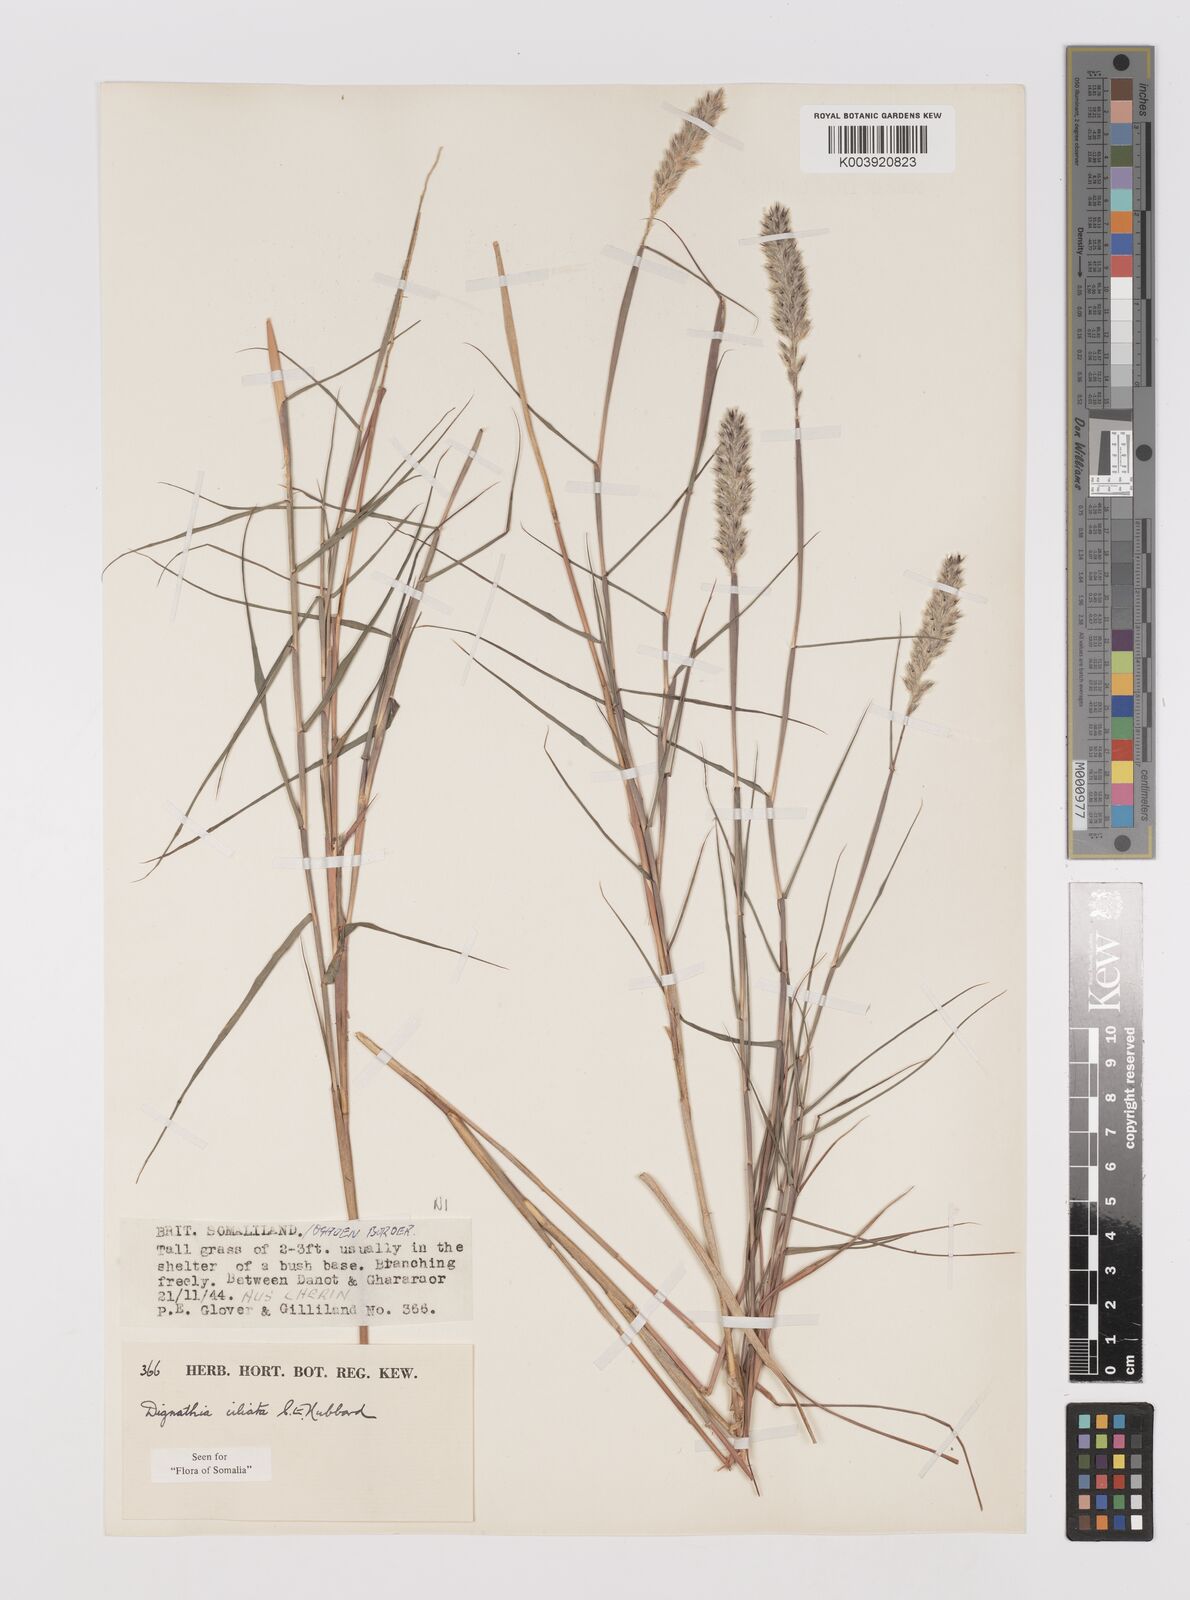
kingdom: Plantae
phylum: Tracheophyta
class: Liliopsida
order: Poales
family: Poaceae
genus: Dignathia
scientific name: Dignathia ciliata
